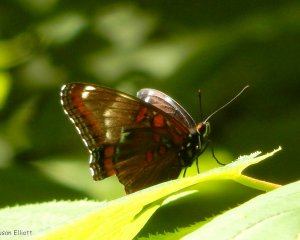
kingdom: Animalia
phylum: Arthropoda
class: Insecta
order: Lepidoptera
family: Nymphalidae
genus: Limenitis
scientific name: Limenitis arthemis
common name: Red-spotted Admiral
